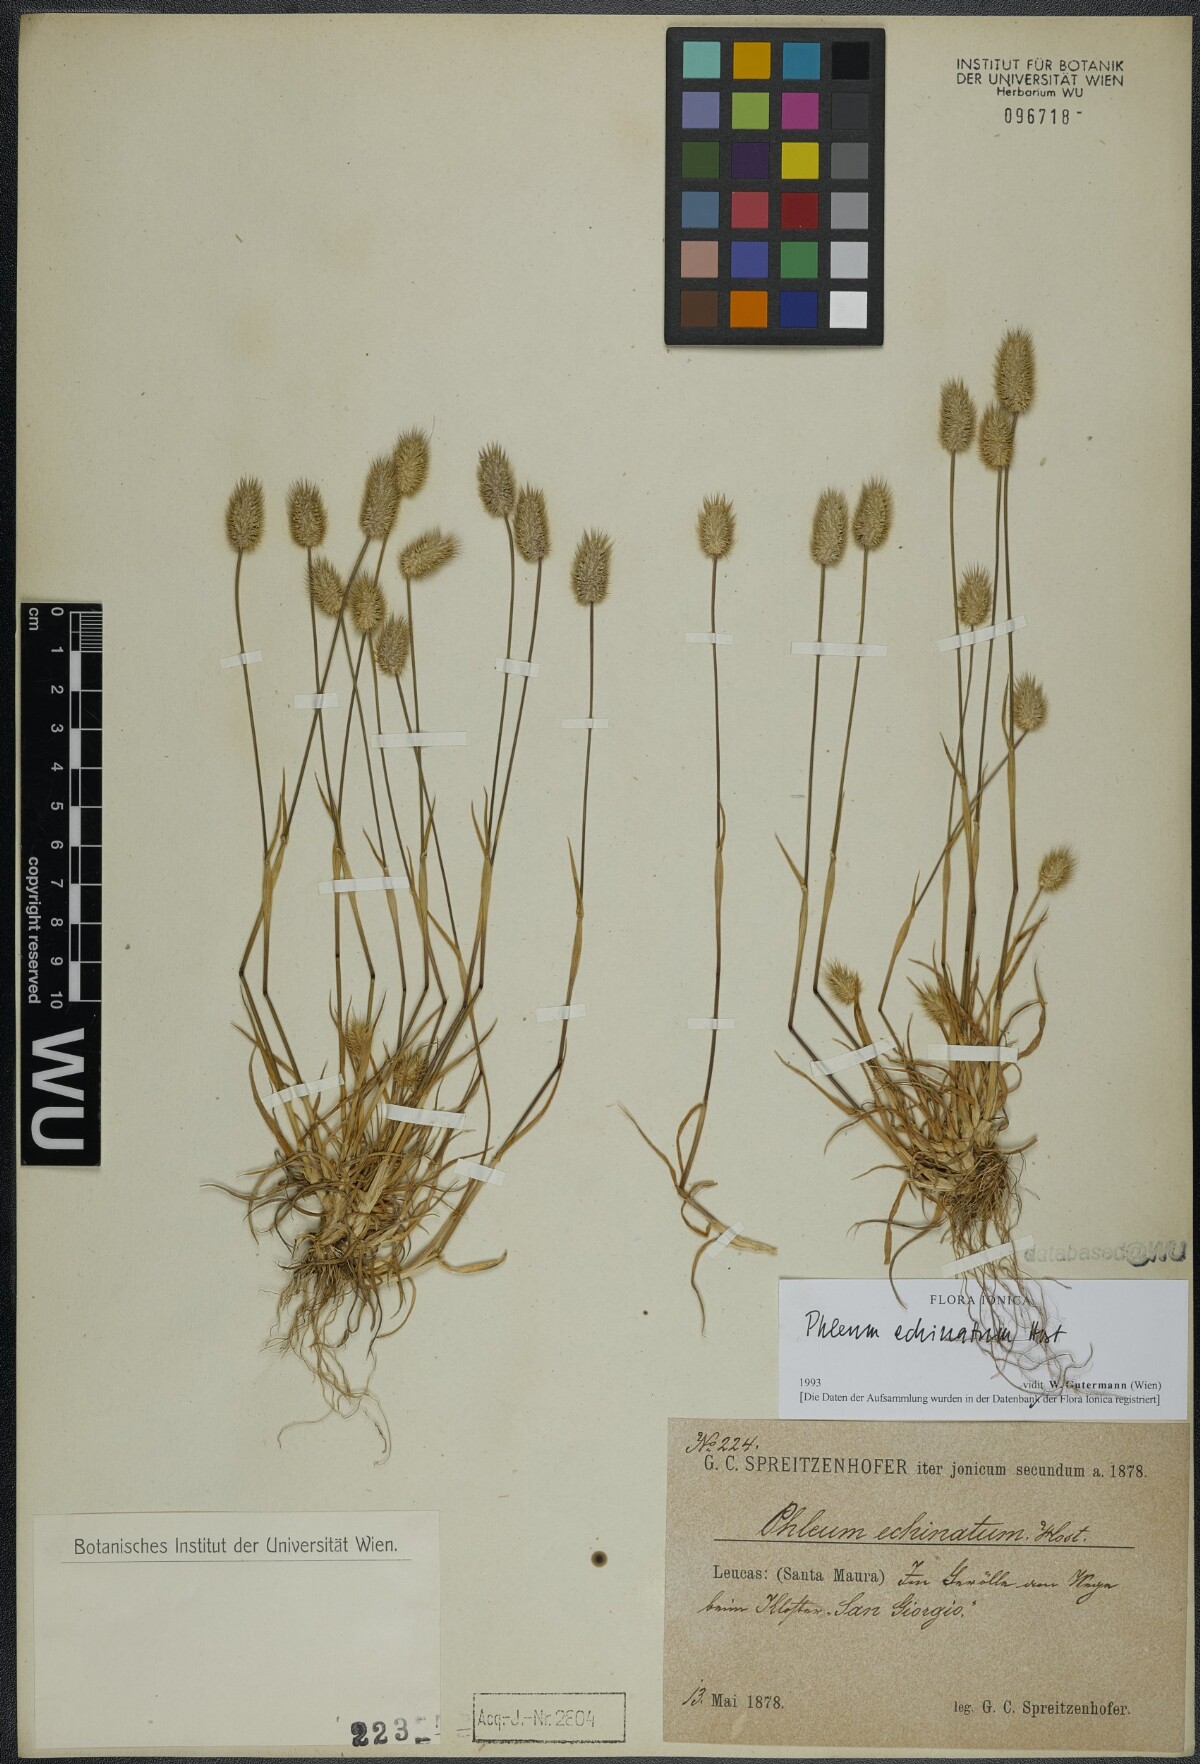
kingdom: Plantae
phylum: Tracheophyta
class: Liliopsida
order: Poales
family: Poaceae
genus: Phleum
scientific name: Phleum echinatum
